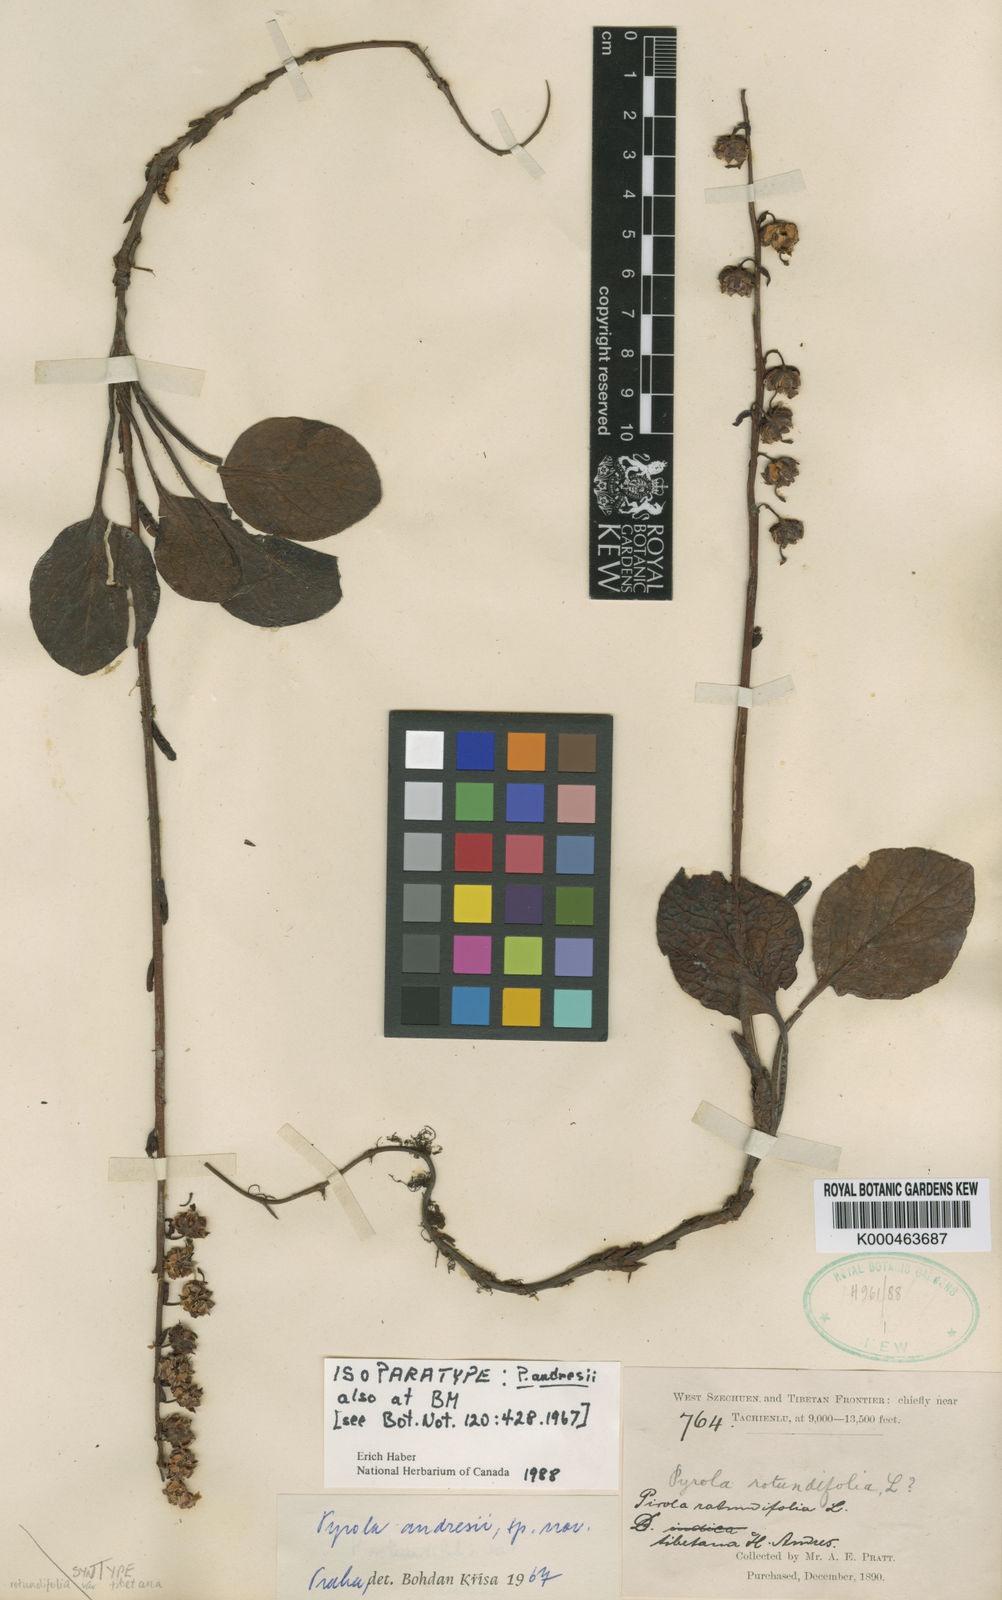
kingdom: Plantae
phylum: Tracheophyta
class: Magnoliopsida
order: Ericales
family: Ericaceae
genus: Pyrola
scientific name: Pyrola
